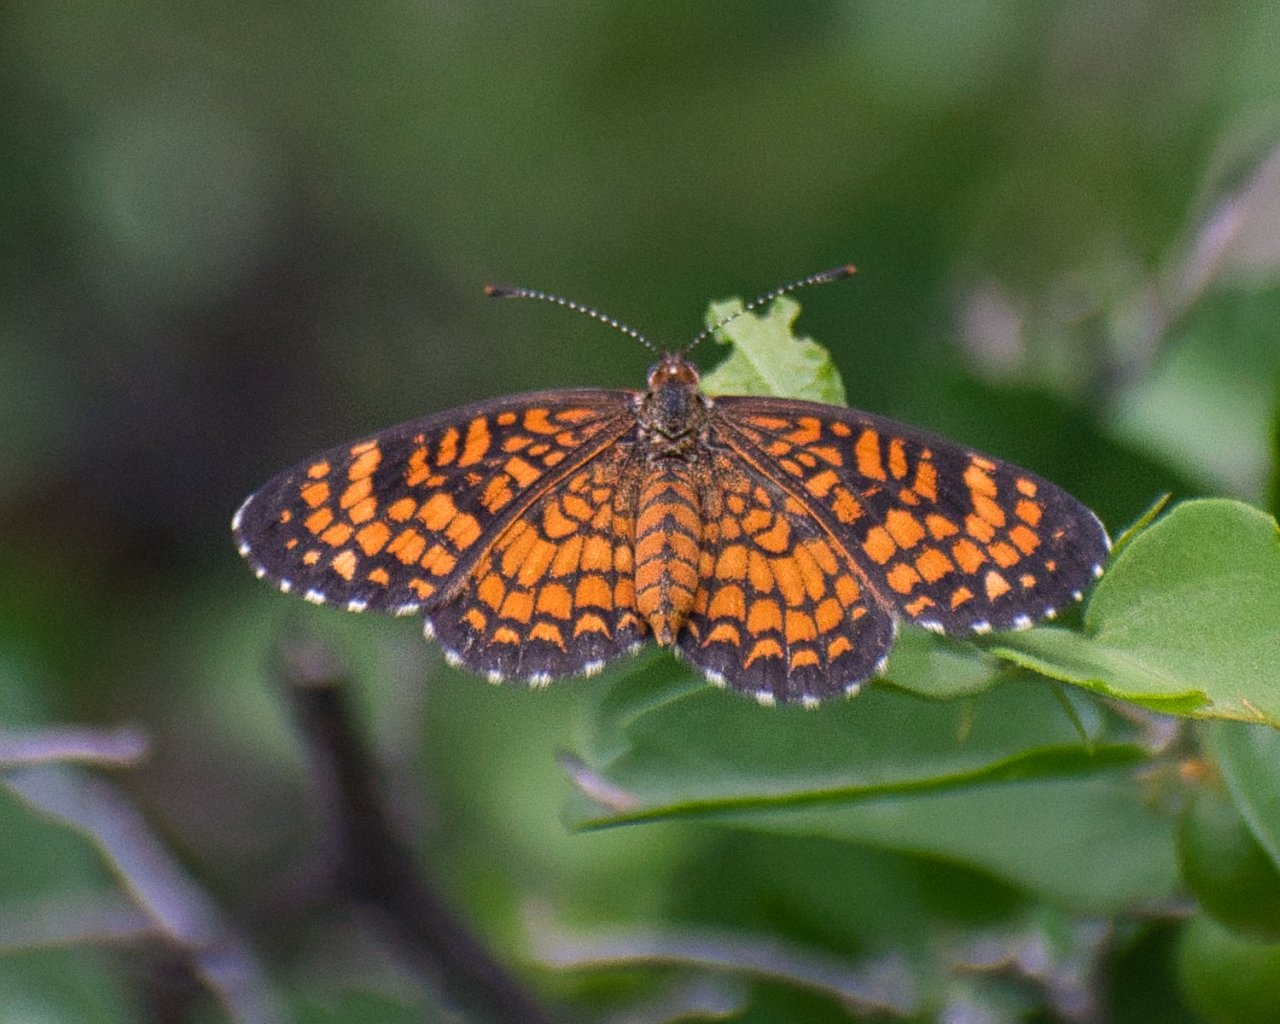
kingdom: Animalia
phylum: Arthropoda
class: Insecta
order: Lepidoptera
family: Nymphalidae
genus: Texola
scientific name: Texola
